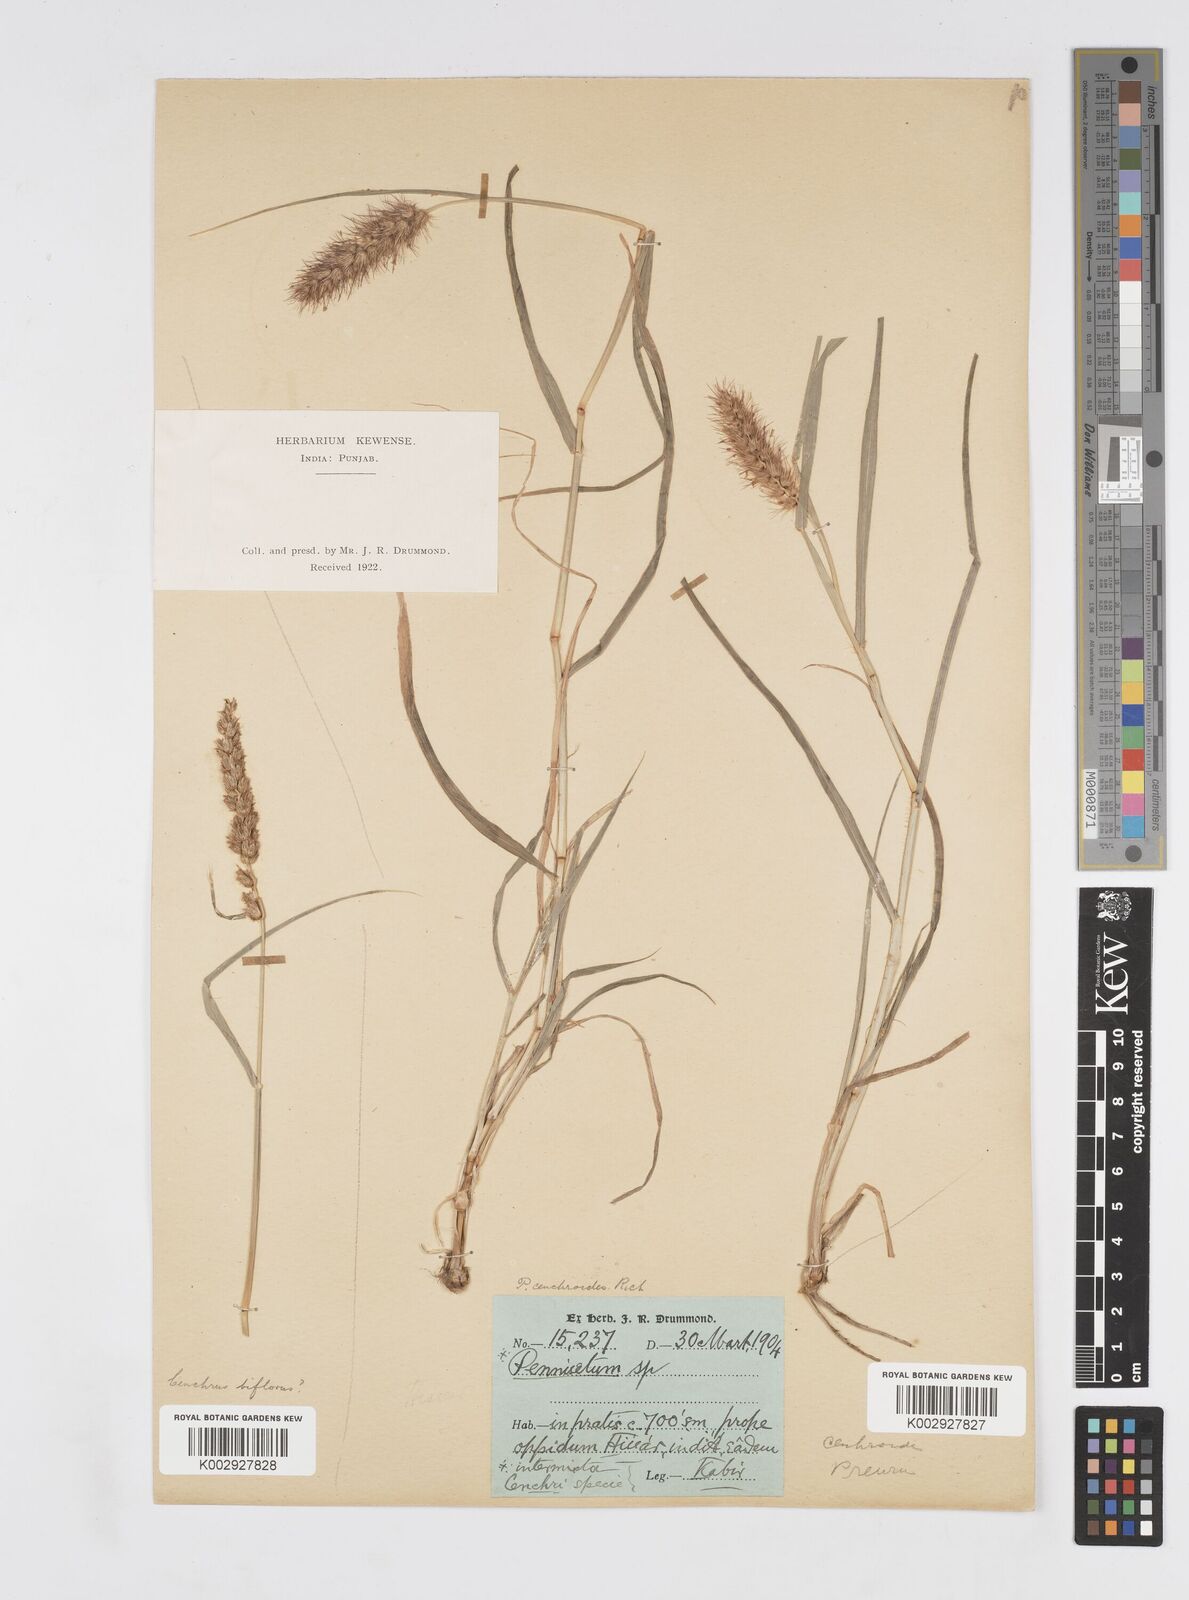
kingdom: Plantae
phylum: Tracheophyta
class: Liliopsida
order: Poales
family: Poaceae
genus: Cenchrus
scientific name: Cenchrus ciliaris
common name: Buffelgrass
